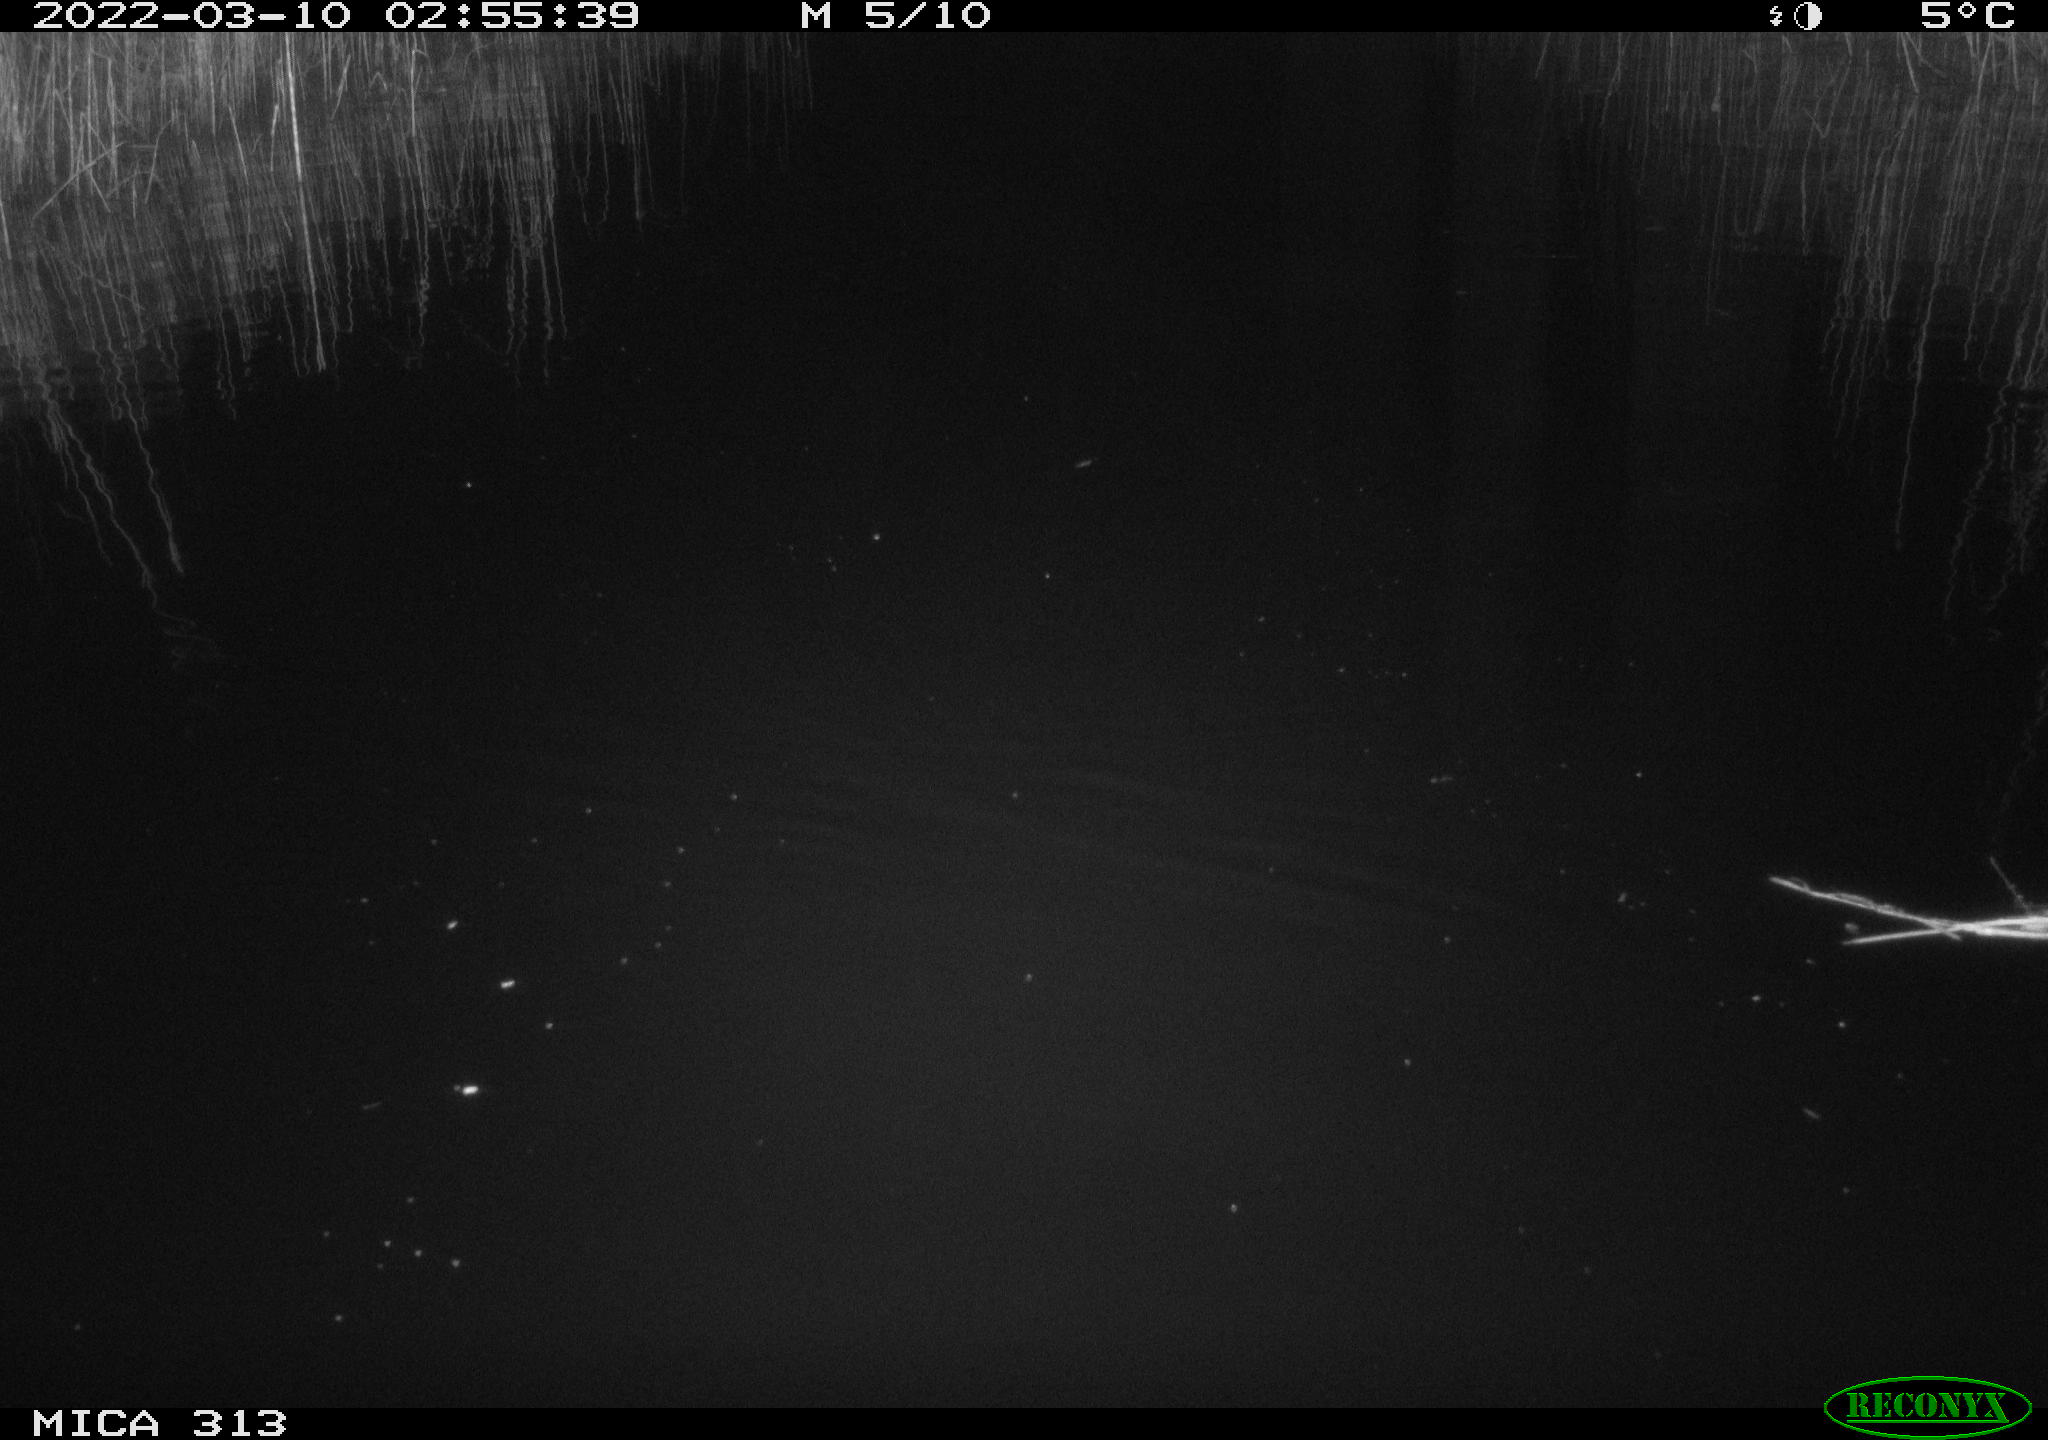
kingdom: Animalia
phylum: Chordata
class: Aves
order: Gruiformes
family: Rallidae
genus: Gallinula
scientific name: Gallinula chloropus
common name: Common moorhen
